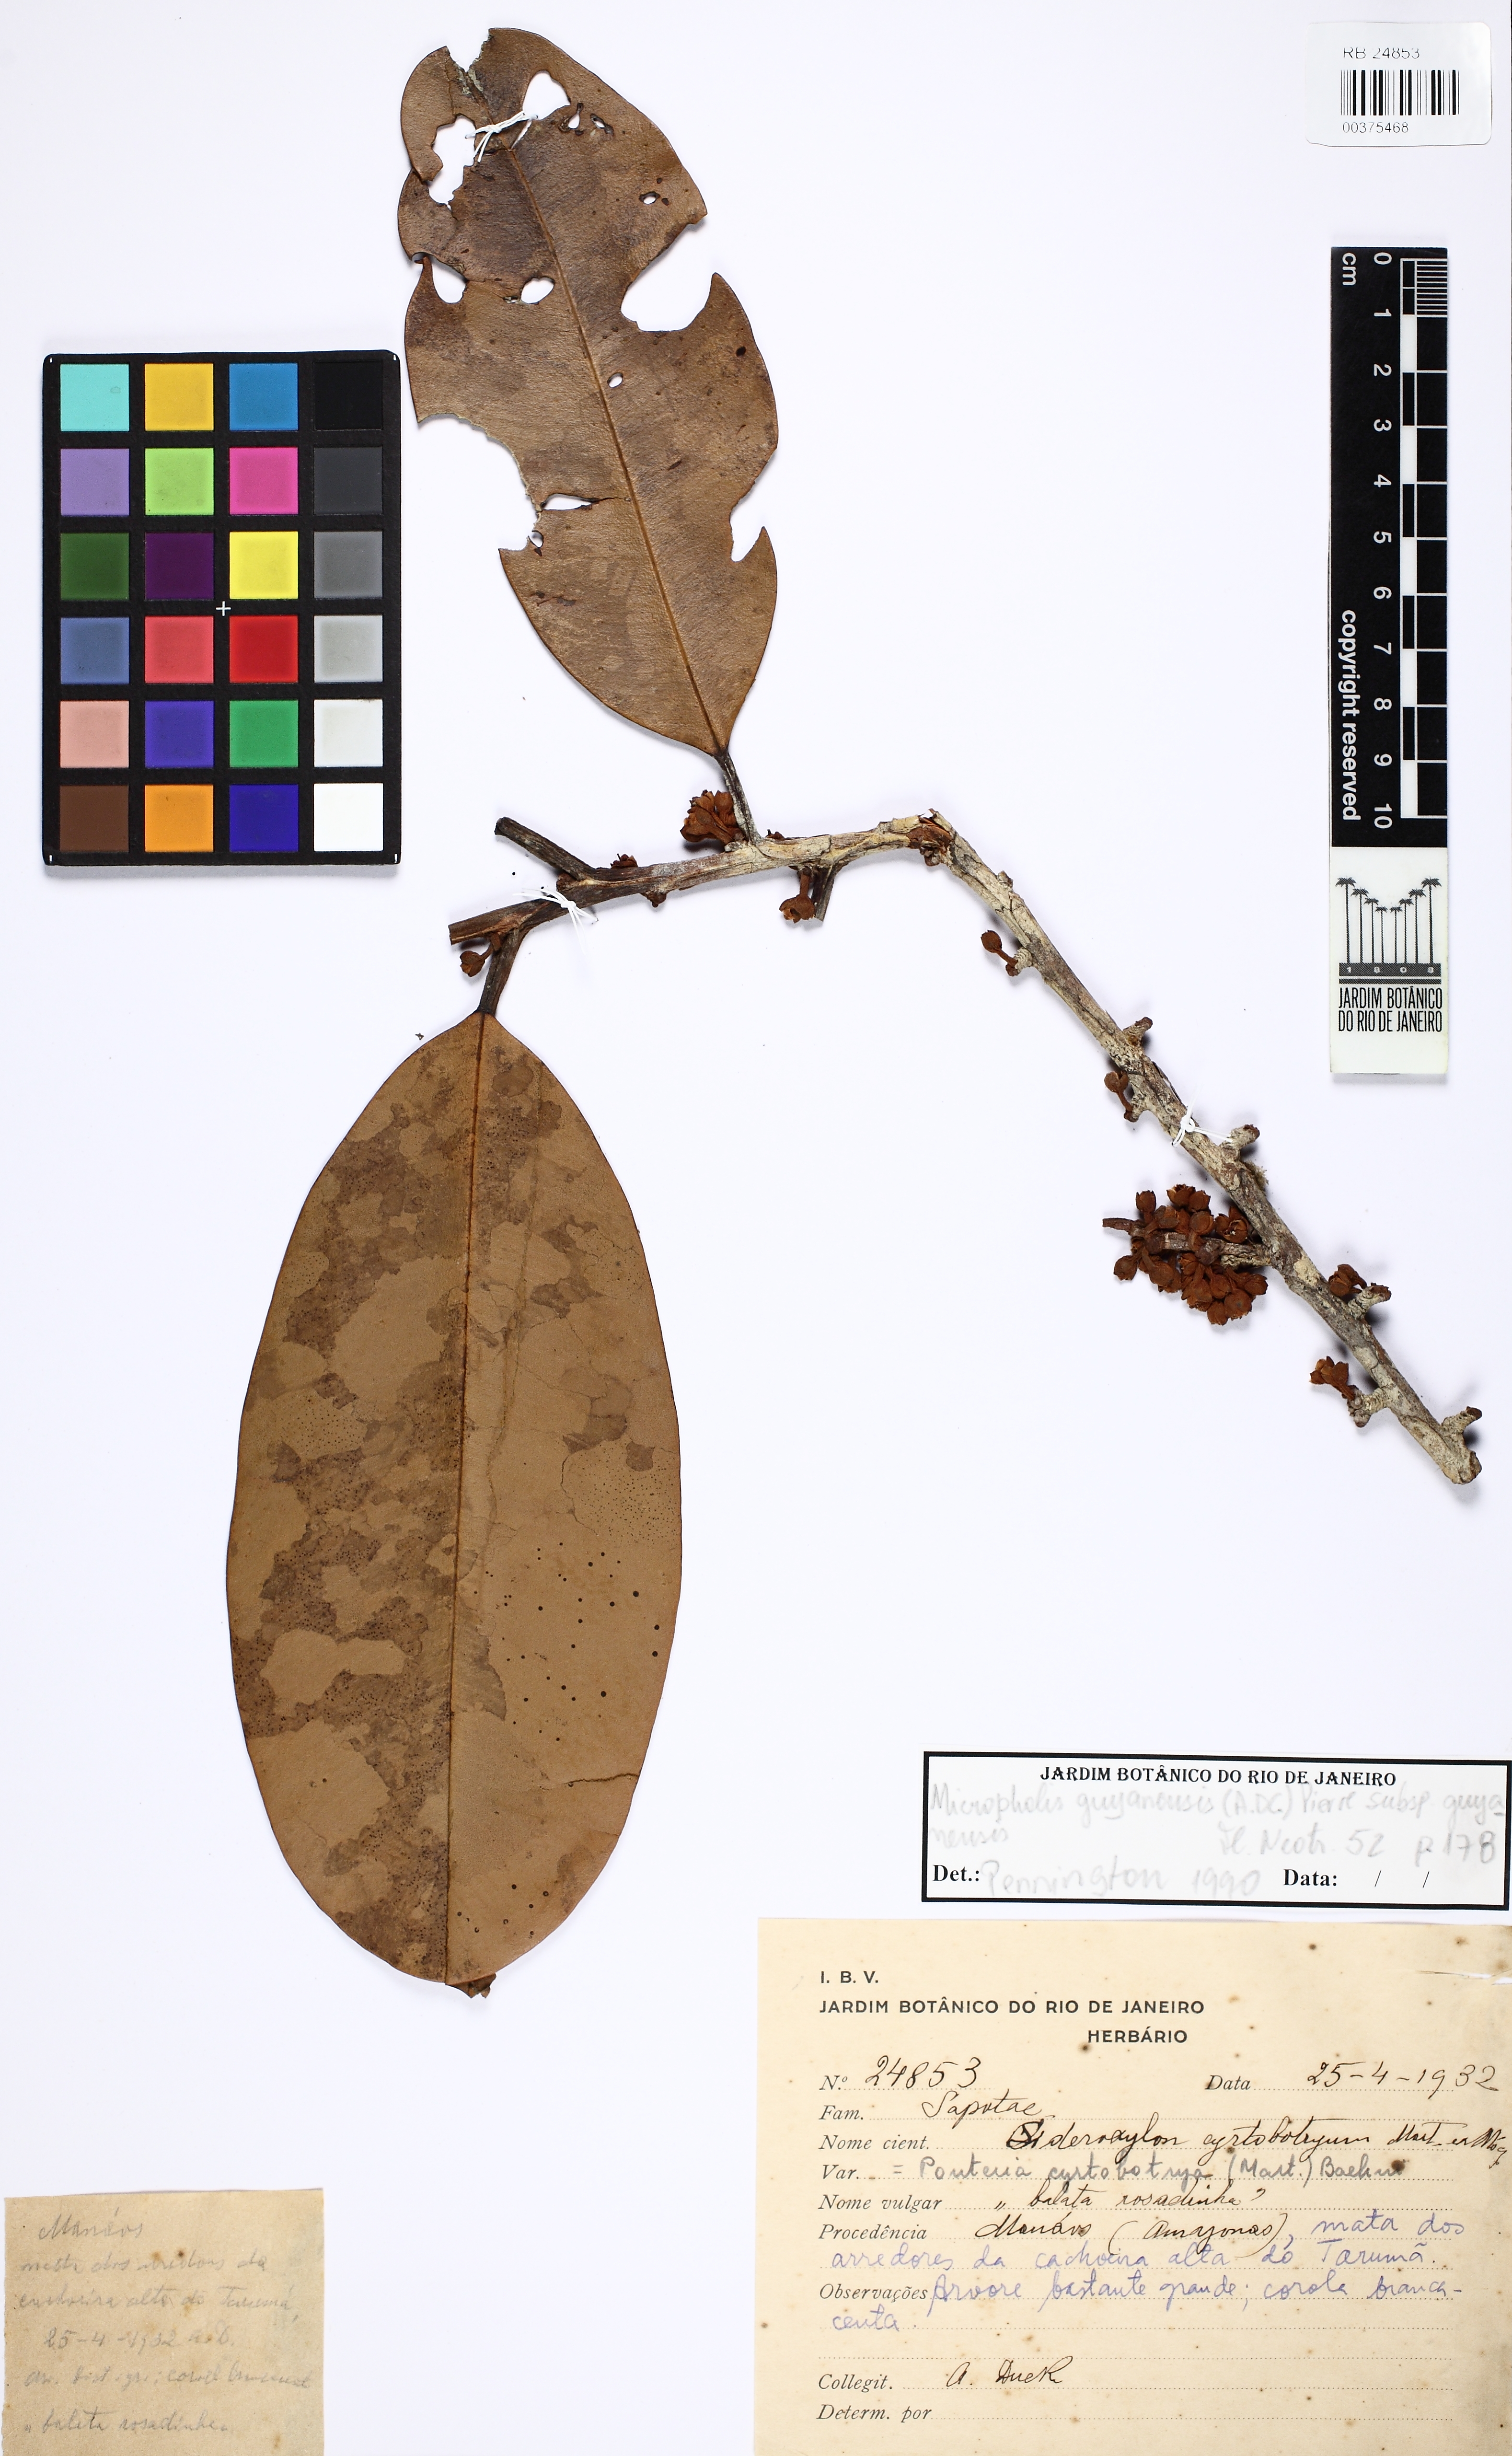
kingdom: Plantae
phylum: Tracheophyta
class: Magnoliopsida
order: Ericales
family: Sapotaceae
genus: Micropholis
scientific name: Micropholis guyanensis
